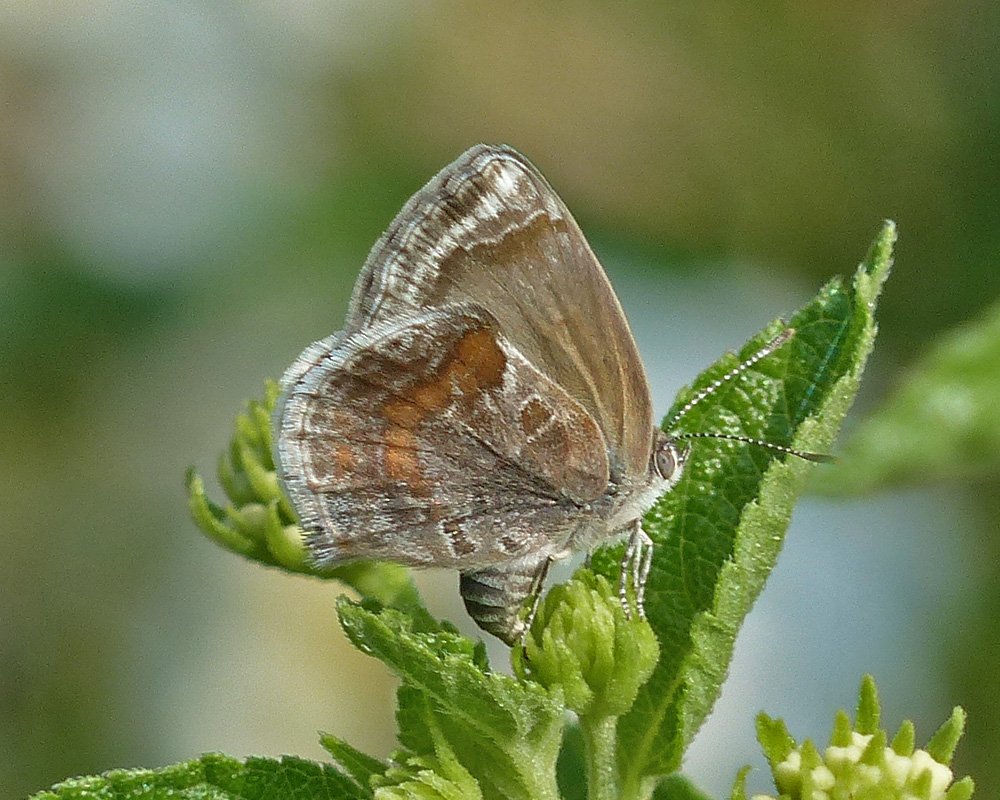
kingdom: Animalia
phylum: Arthropoda
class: Insecta
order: Lepidoptera
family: Lycaenidae
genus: Strymon
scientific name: Strymon bazochii
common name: Lantana Scrub-Hairstreak
